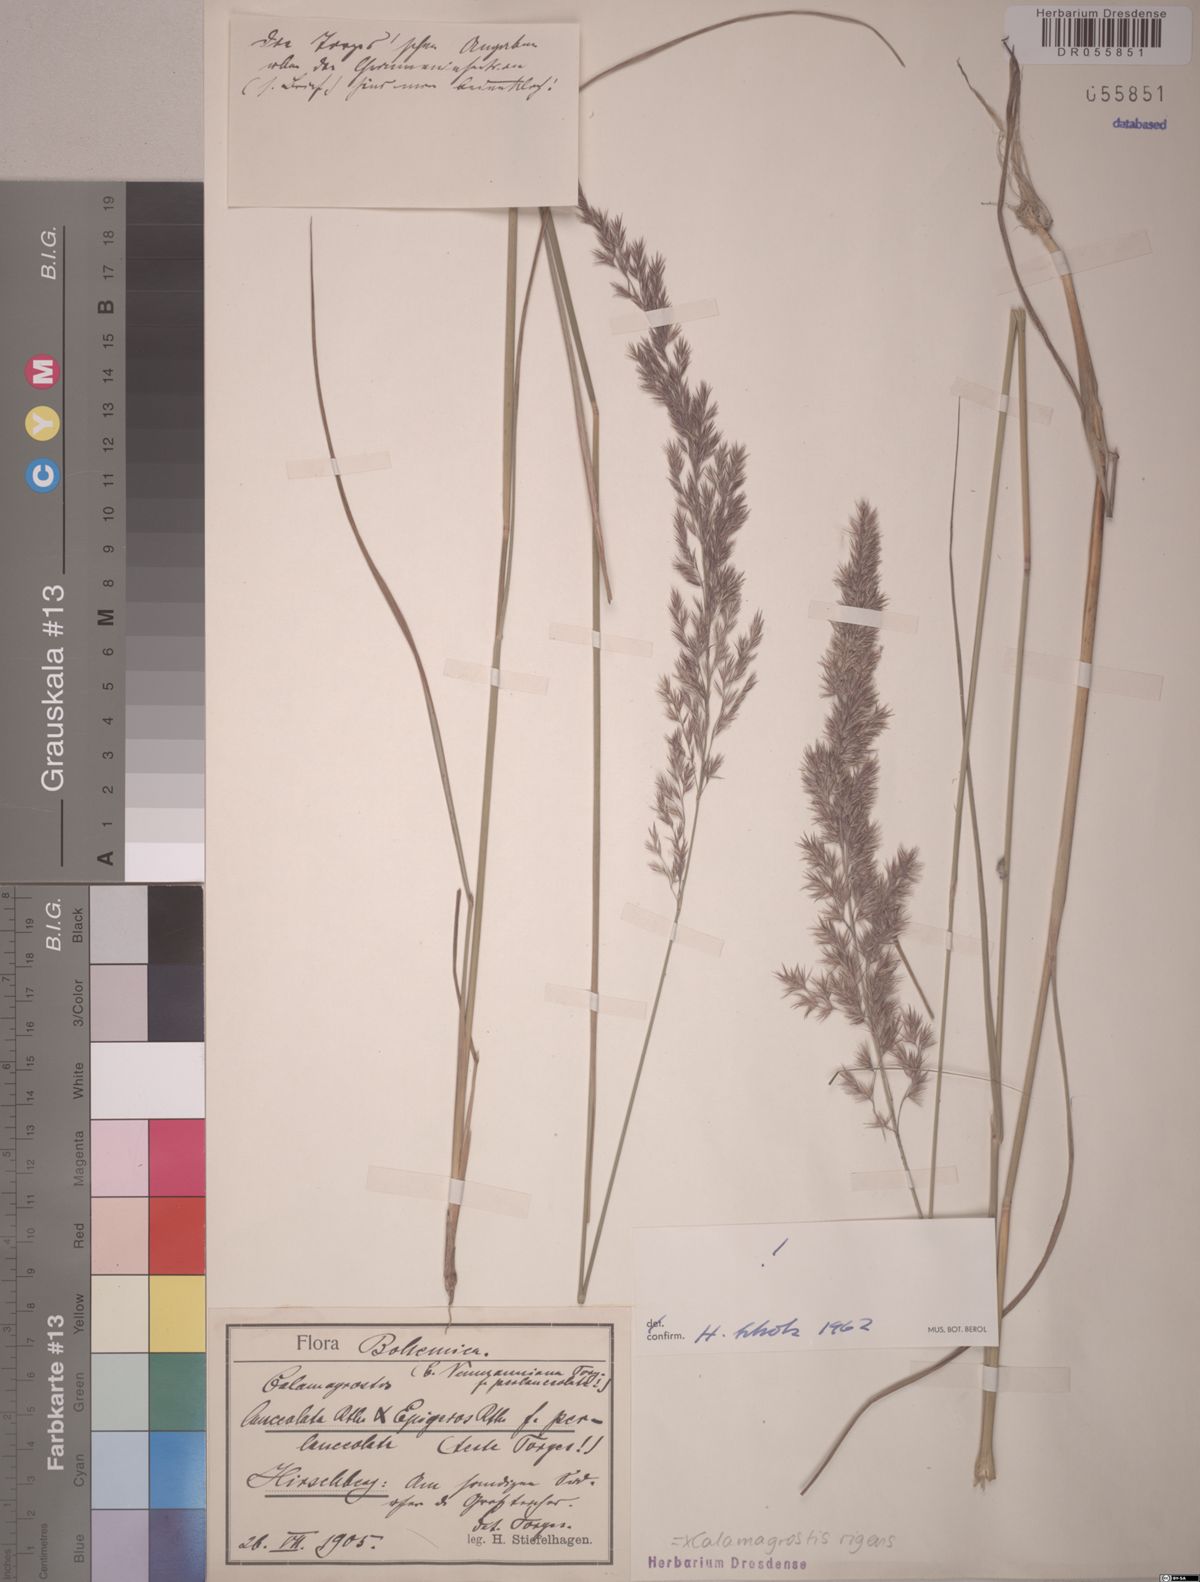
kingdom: Plantae
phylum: Tracheophyta
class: Liliopsida
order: Poales
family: Poaceae
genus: Calamagrostis
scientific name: Calamagrostis rigens
